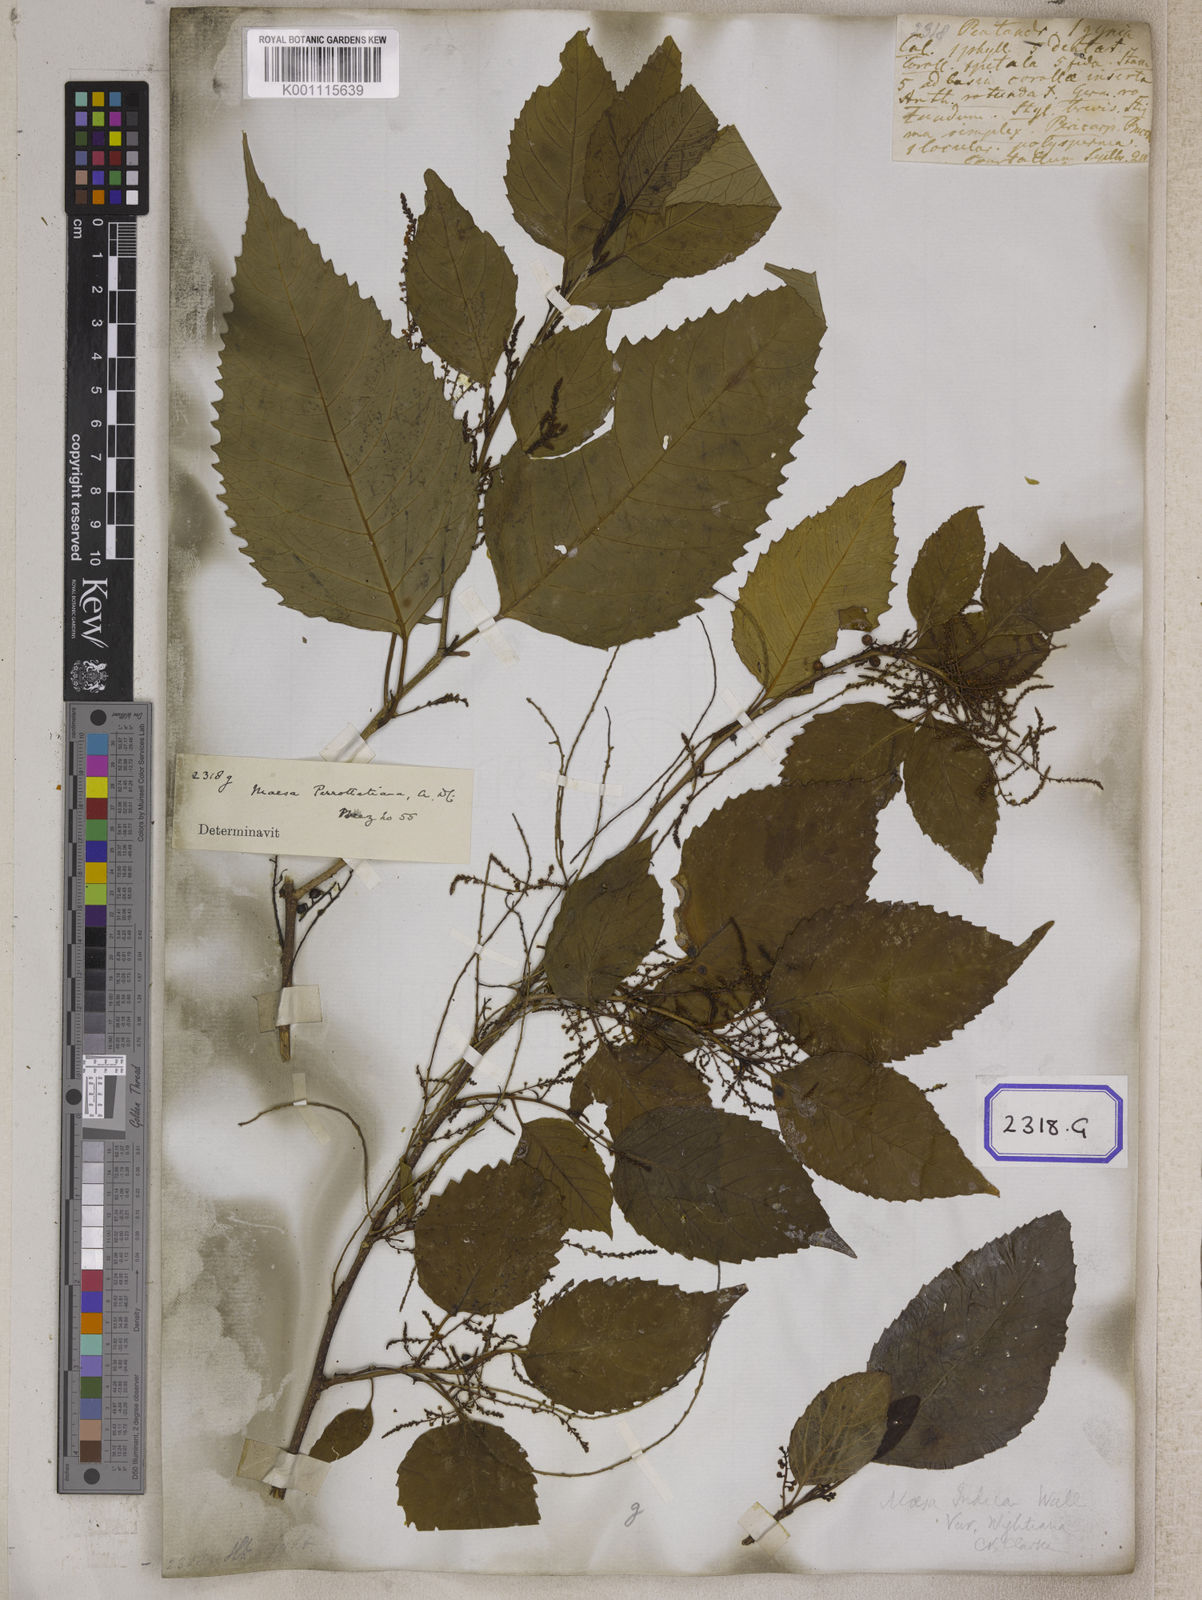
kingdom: Plantae
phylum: Tracheophyta
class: Magnoliopsida
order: Ericales
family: Primulaceae
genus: Maesa
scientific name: Maesa indica
